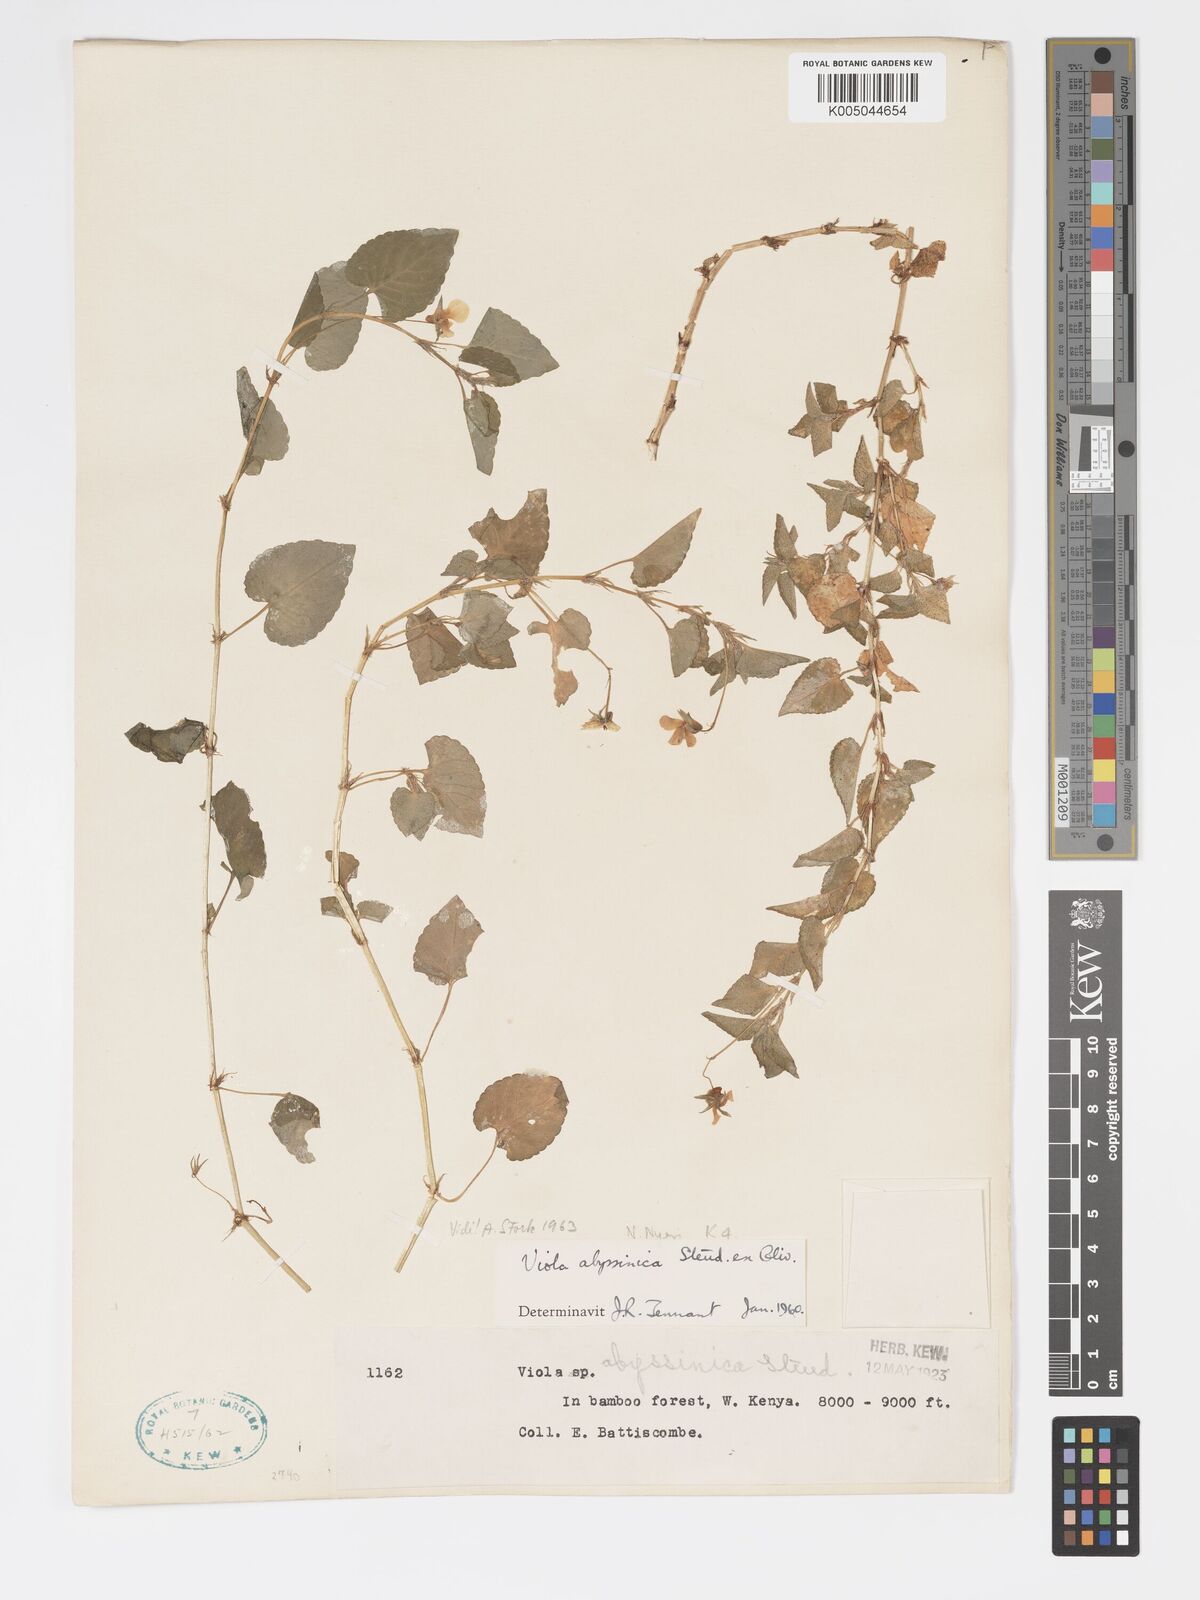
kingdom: Plantae
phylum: Tracheophyta
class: Magnoliopsida
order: Malpighiales
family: Violaceae
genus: Viola
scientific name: Viola abyssinica
